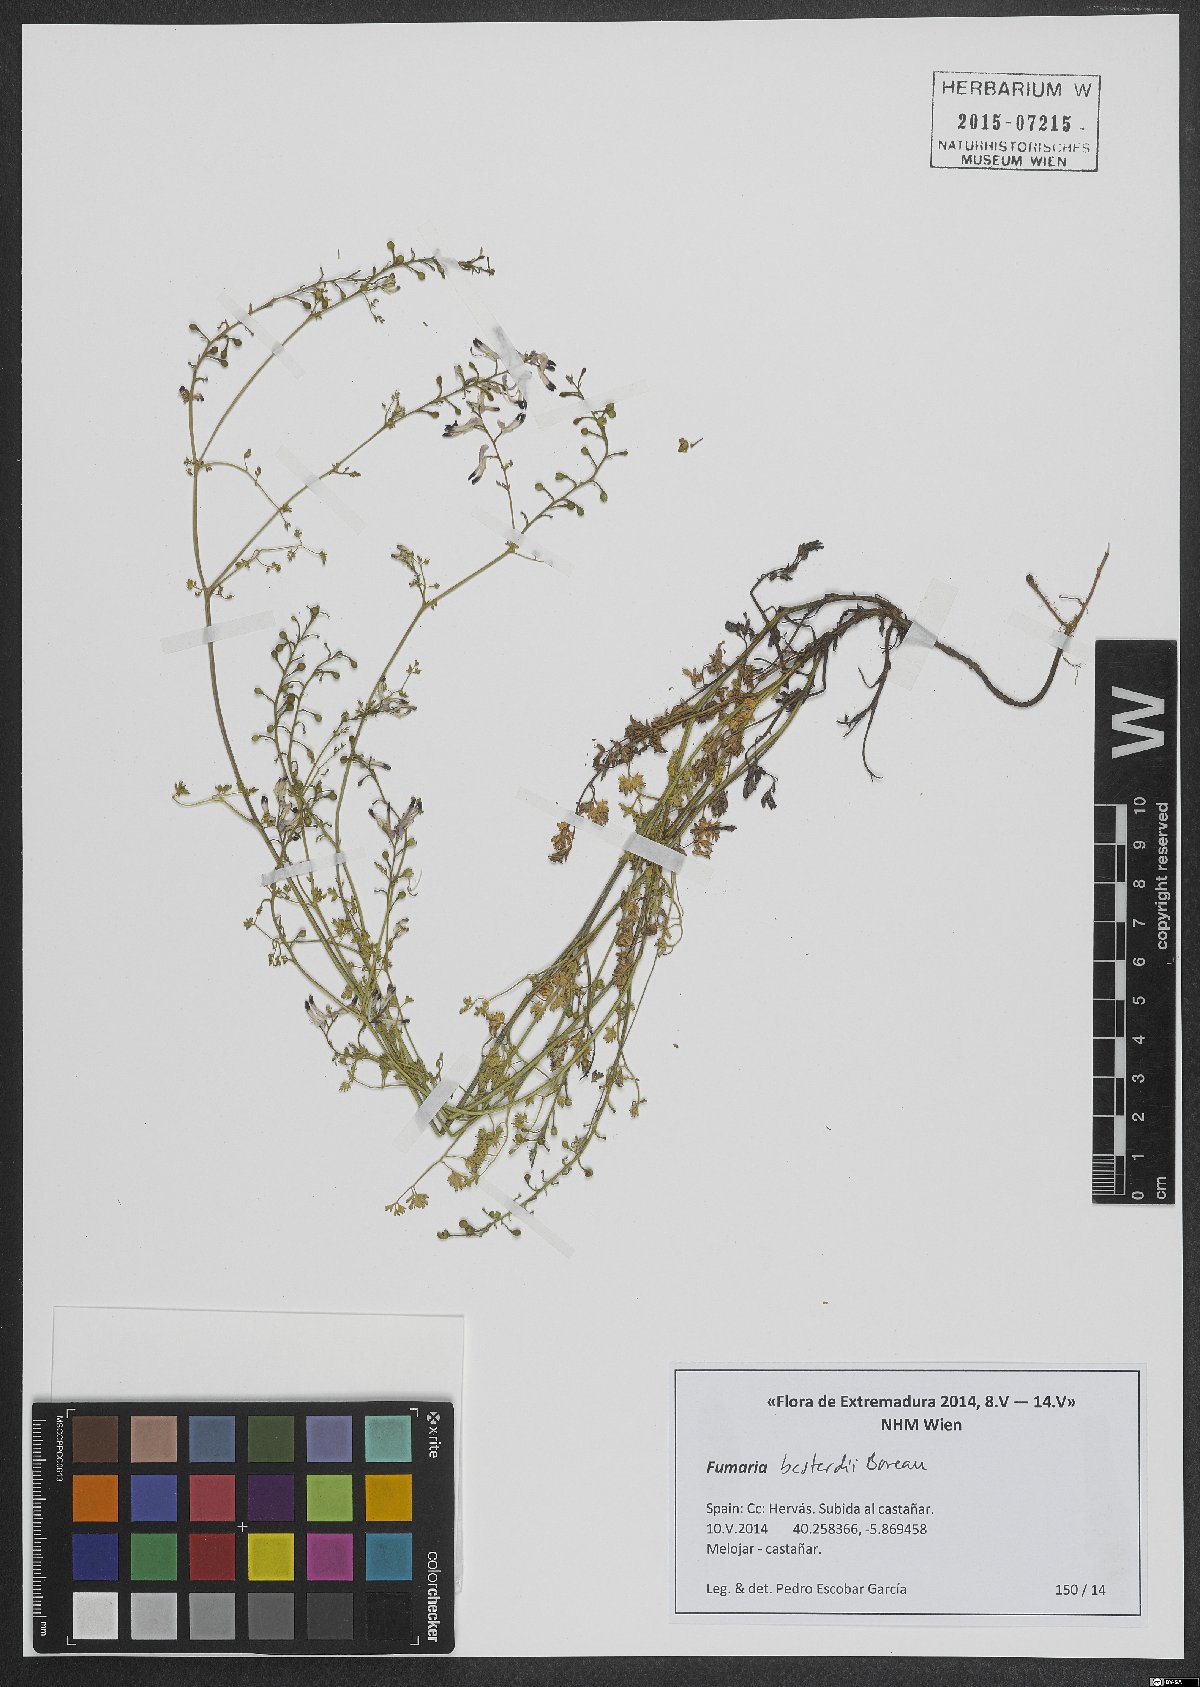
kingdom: Plantae
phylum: Tracheophyta
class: Magnoliopsida
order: Ranunculales
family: Papaveraceae
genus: Fumaria
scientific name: Fumaria bastardii
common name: Tall ramping-fumitory
